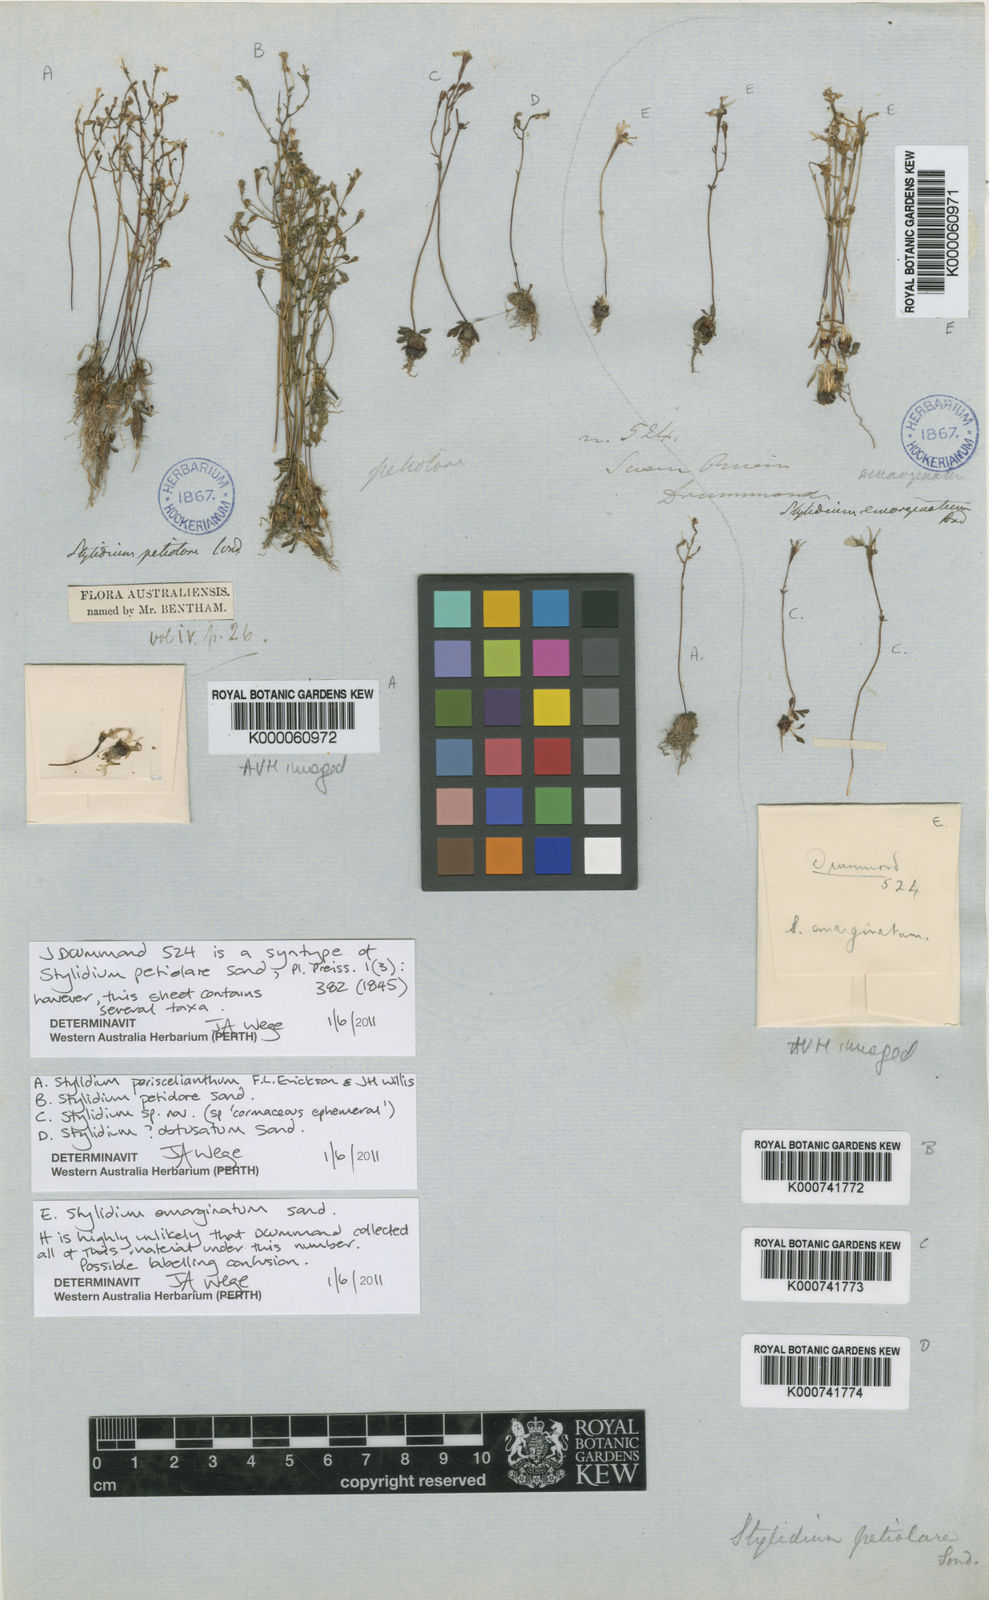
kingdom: Plantae
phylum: Tracheophyta
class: Magnoliopsida
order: Asterales
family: Stylidiaceae
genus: Stylidium
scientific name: Stylidium petiolare
